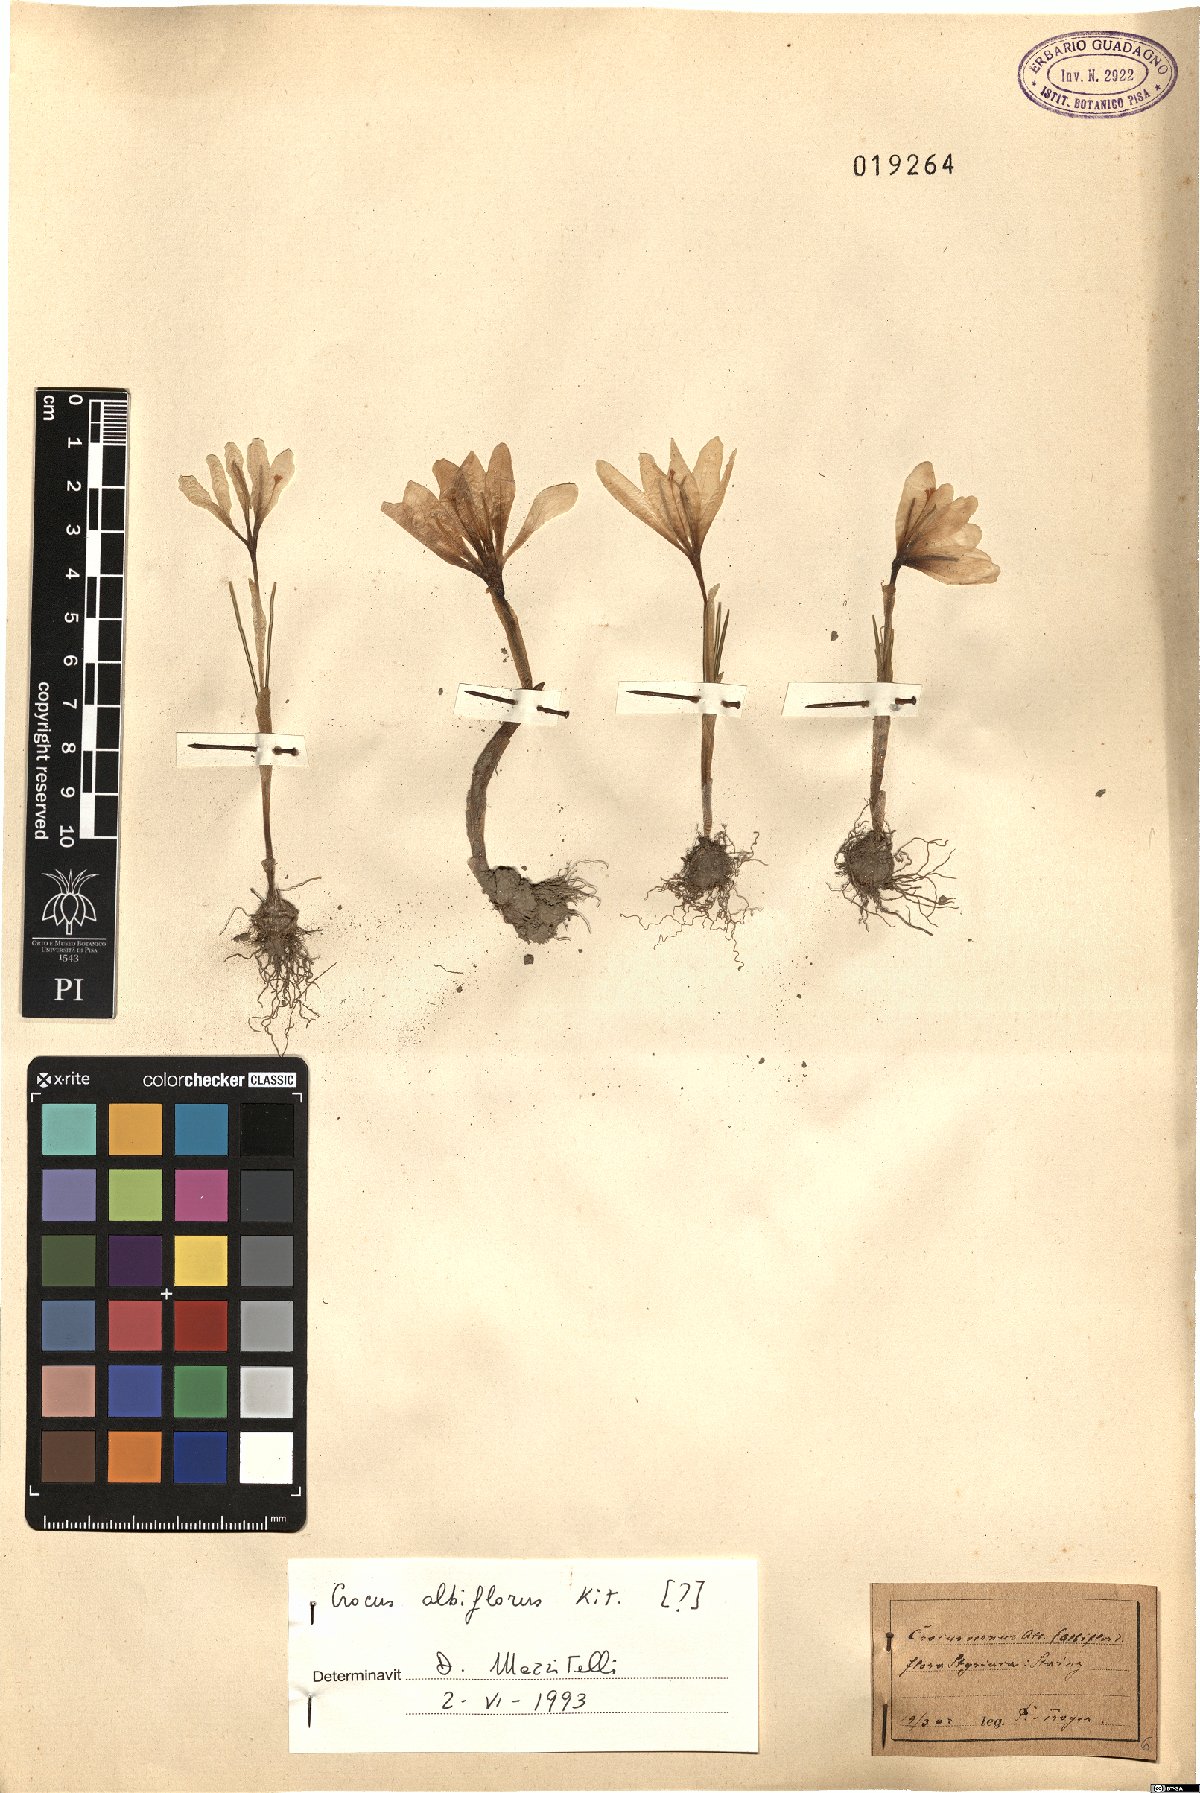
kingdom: Plantae
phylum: Tracheophyta
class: Liliopsida
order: Asparagales
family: Iridaceae
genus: Crocus
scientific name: Crocus vernus
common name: Spring crocus
